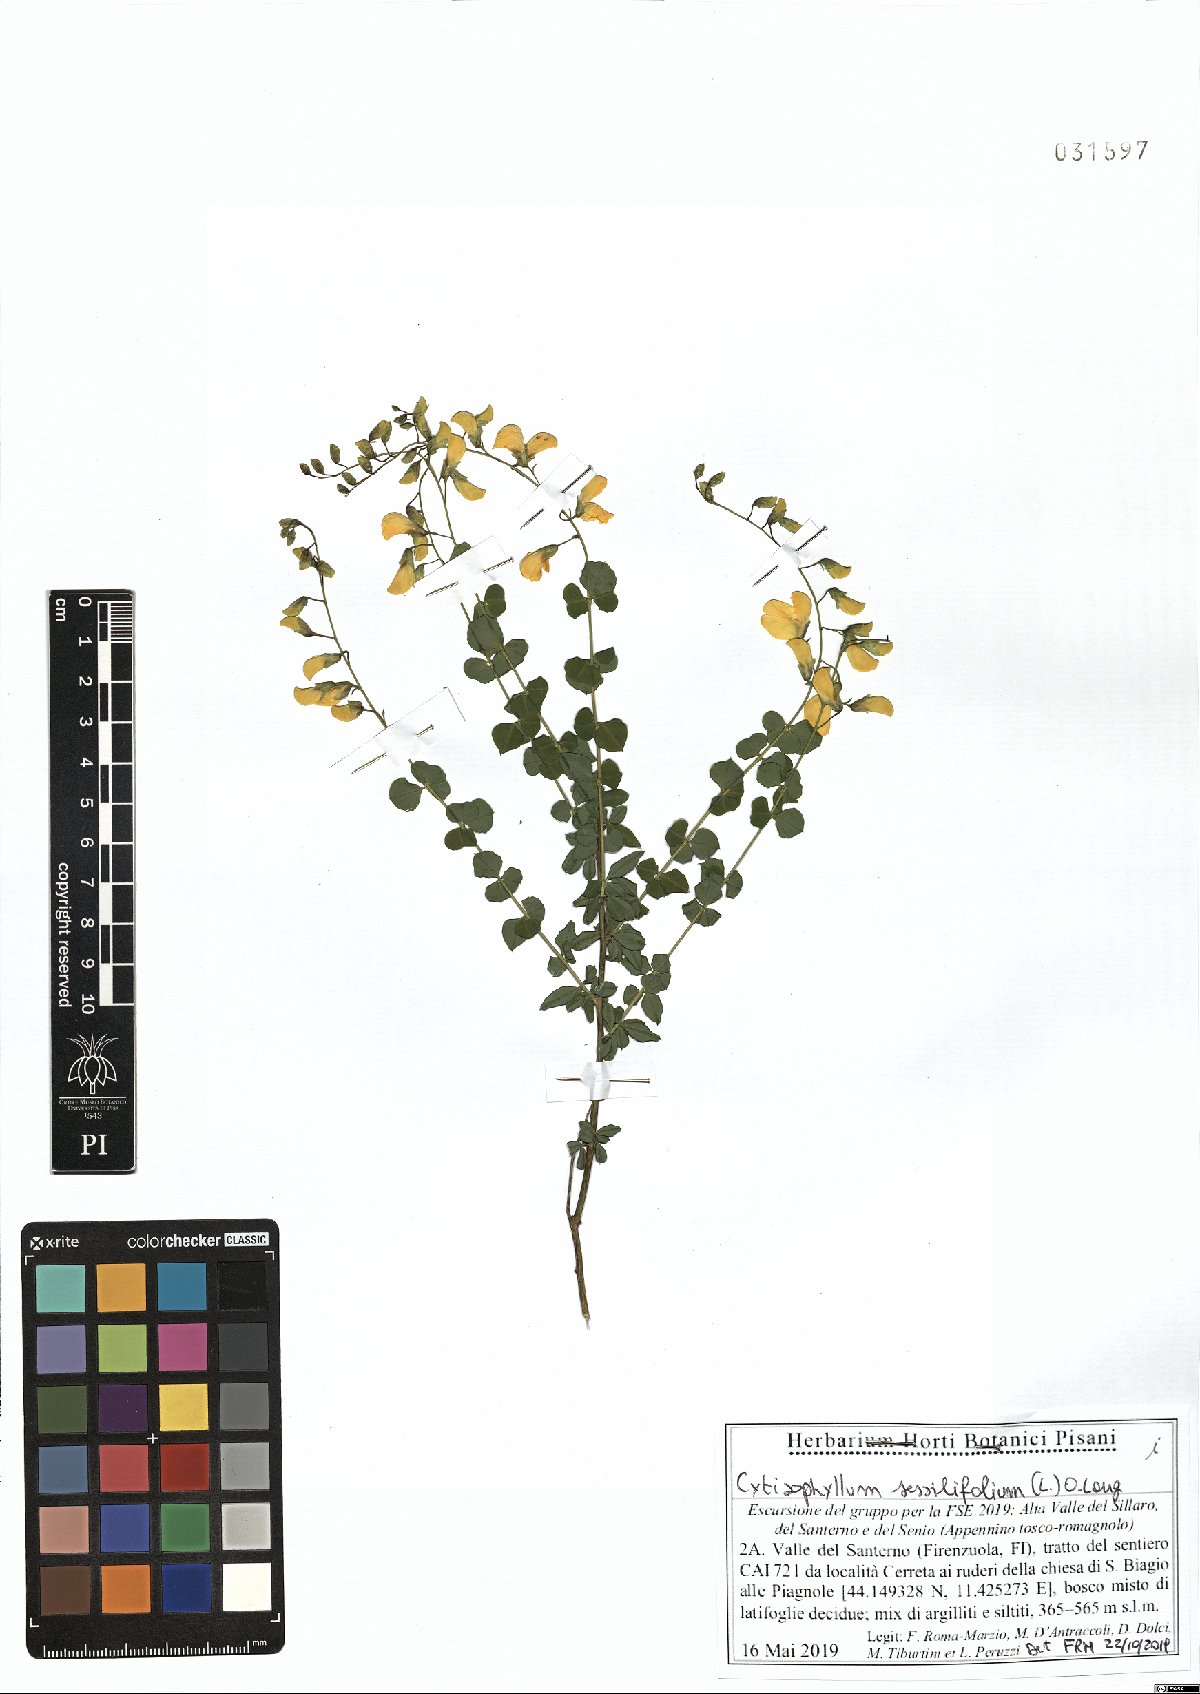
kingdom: Plantae
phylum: Tracheophyta
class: Magnoliopsida
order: Fabales
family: Fabaceae
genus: Cytisophyllum
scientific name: Cytisophyllum sessilifolium
